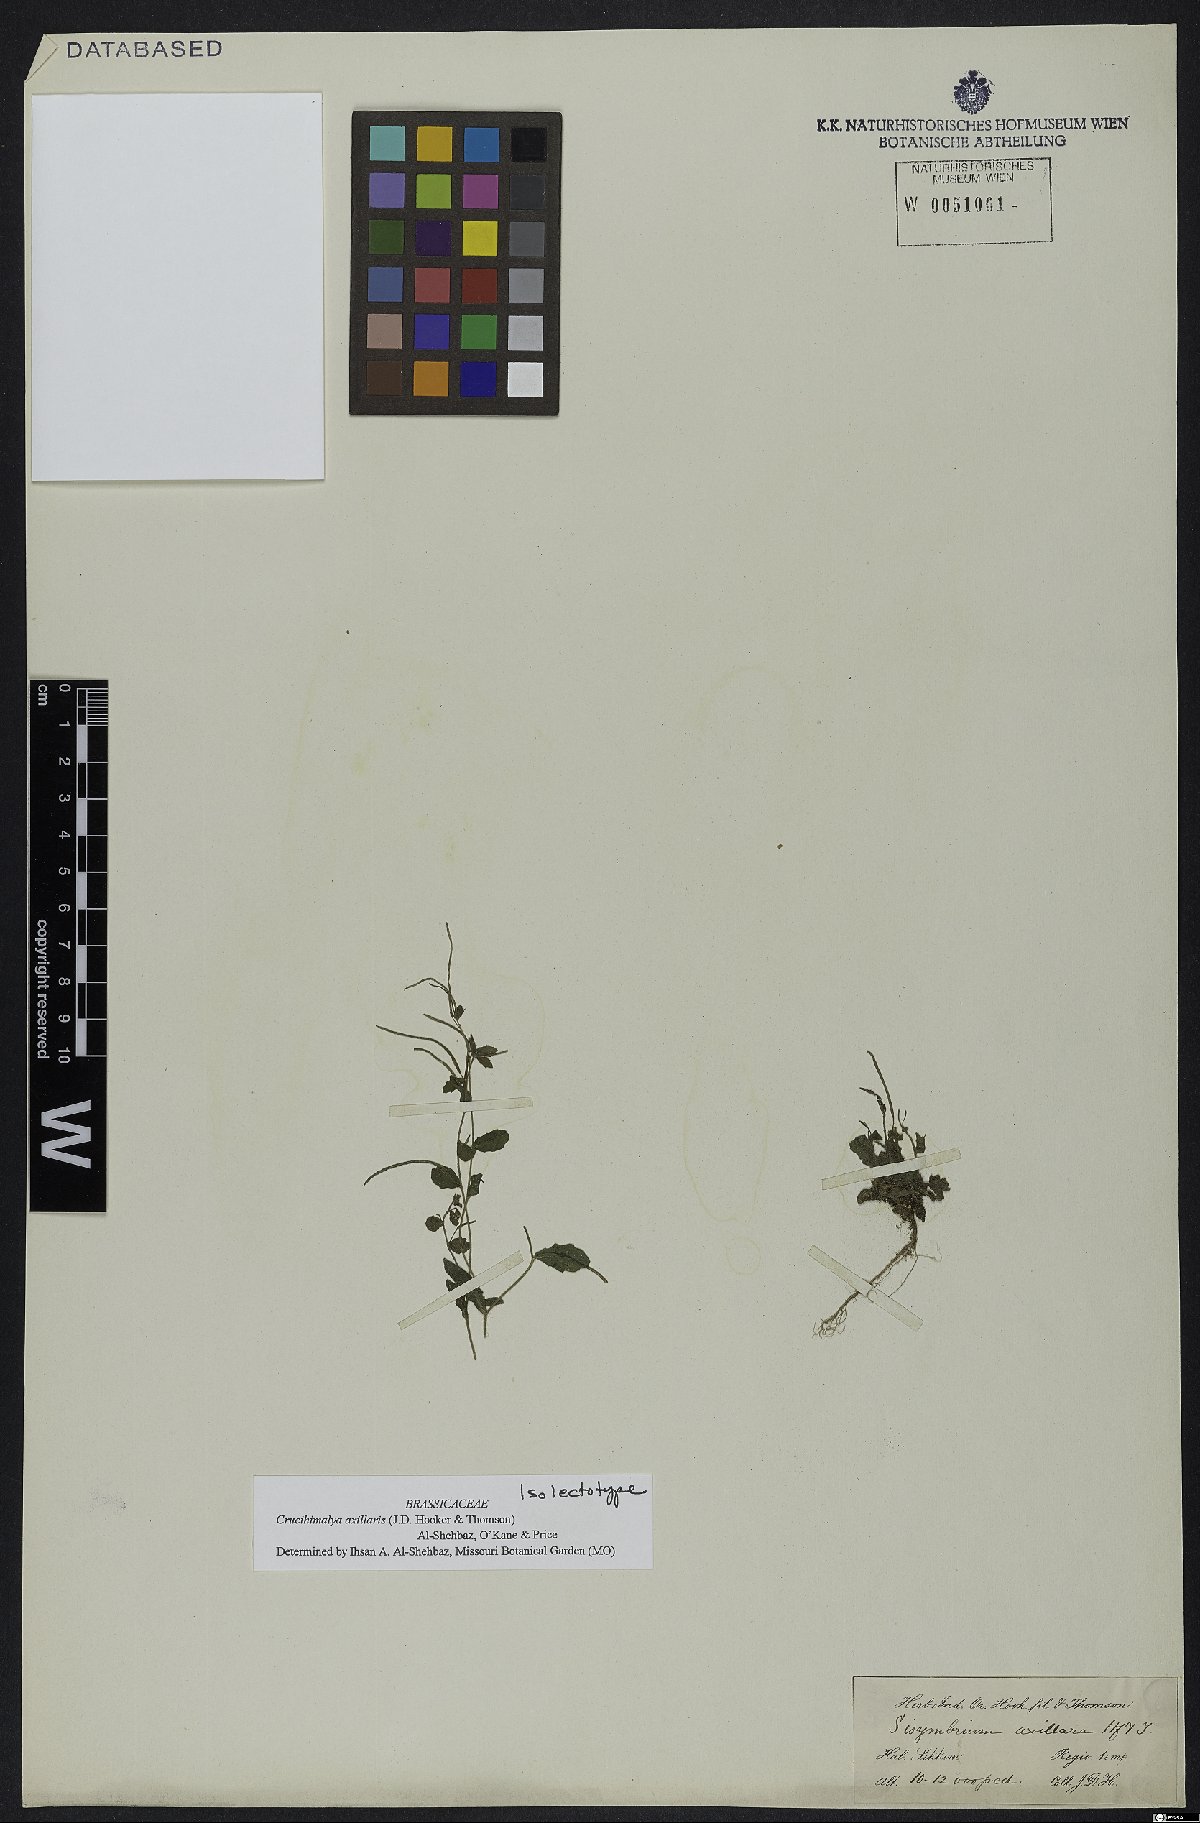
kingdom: Plantae
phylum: Tracheophyta
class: Magnoliopsida
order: Brassicales
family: Brassicaceae
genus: Crucihimalaya
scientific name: Crucihimalaya axillaris
